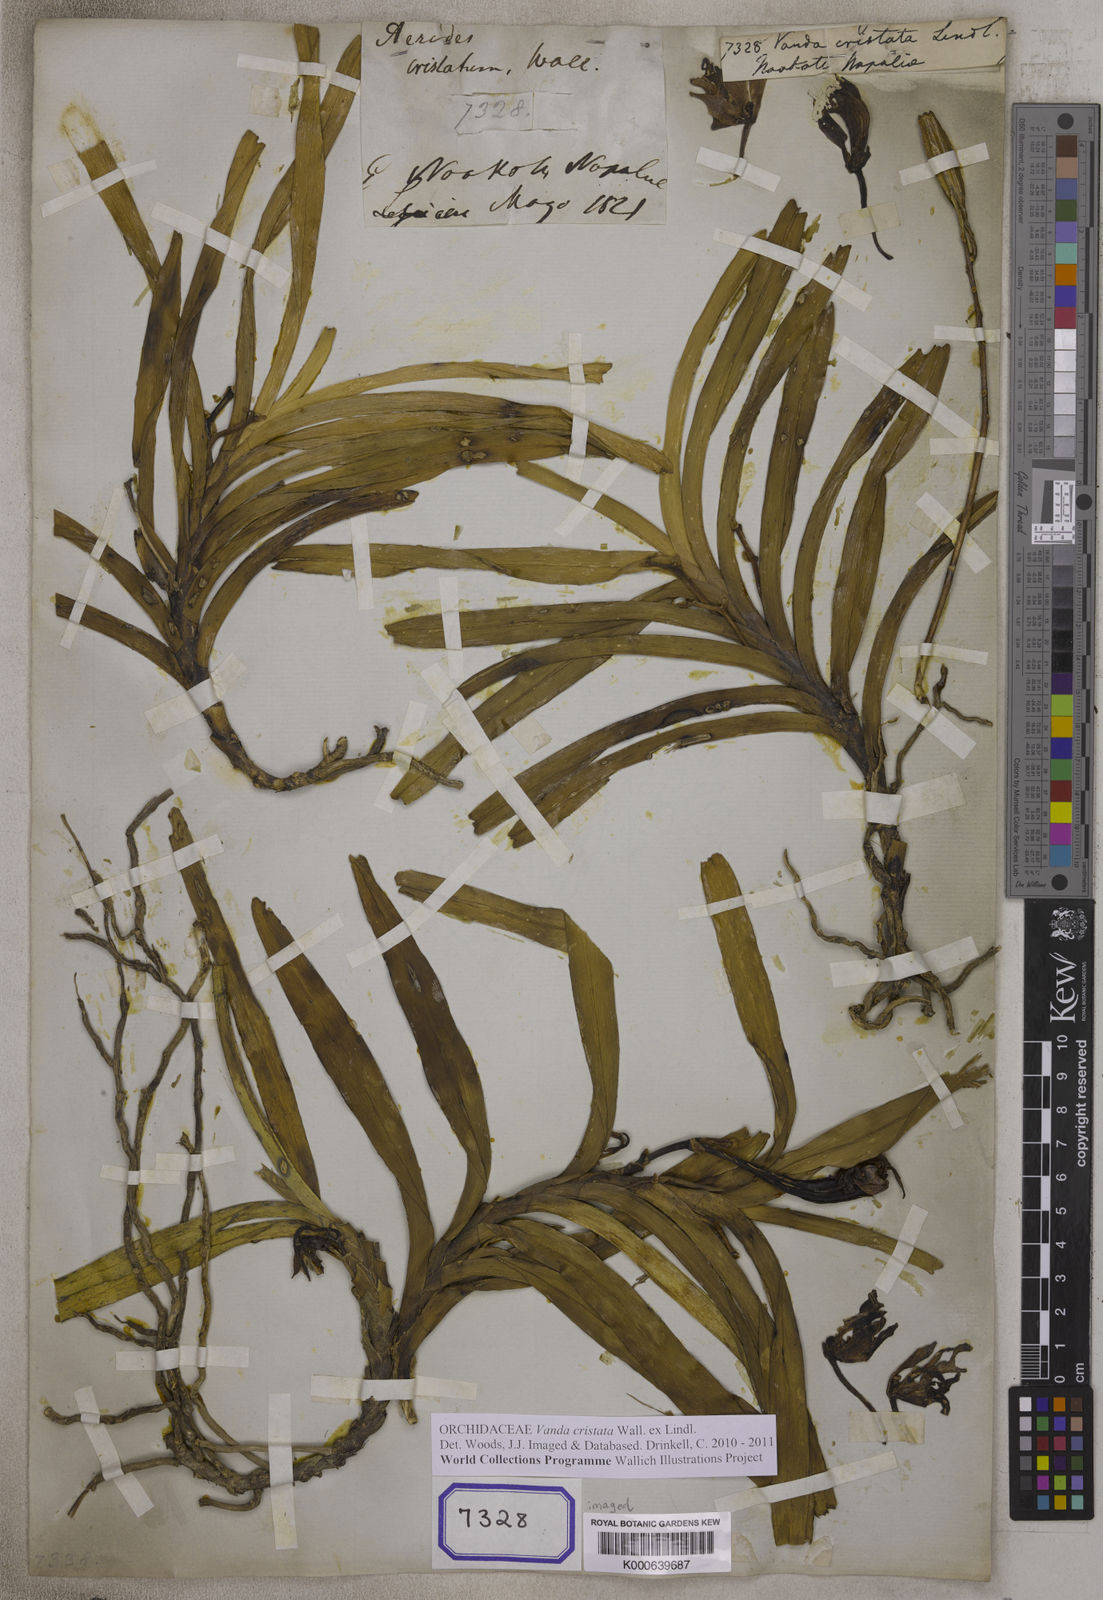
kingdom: Plantae
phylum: Tracheophyta
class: Liliopsida
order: Asparagales
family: Orchidaceae
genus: Vanda
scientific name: Vanda cristata
